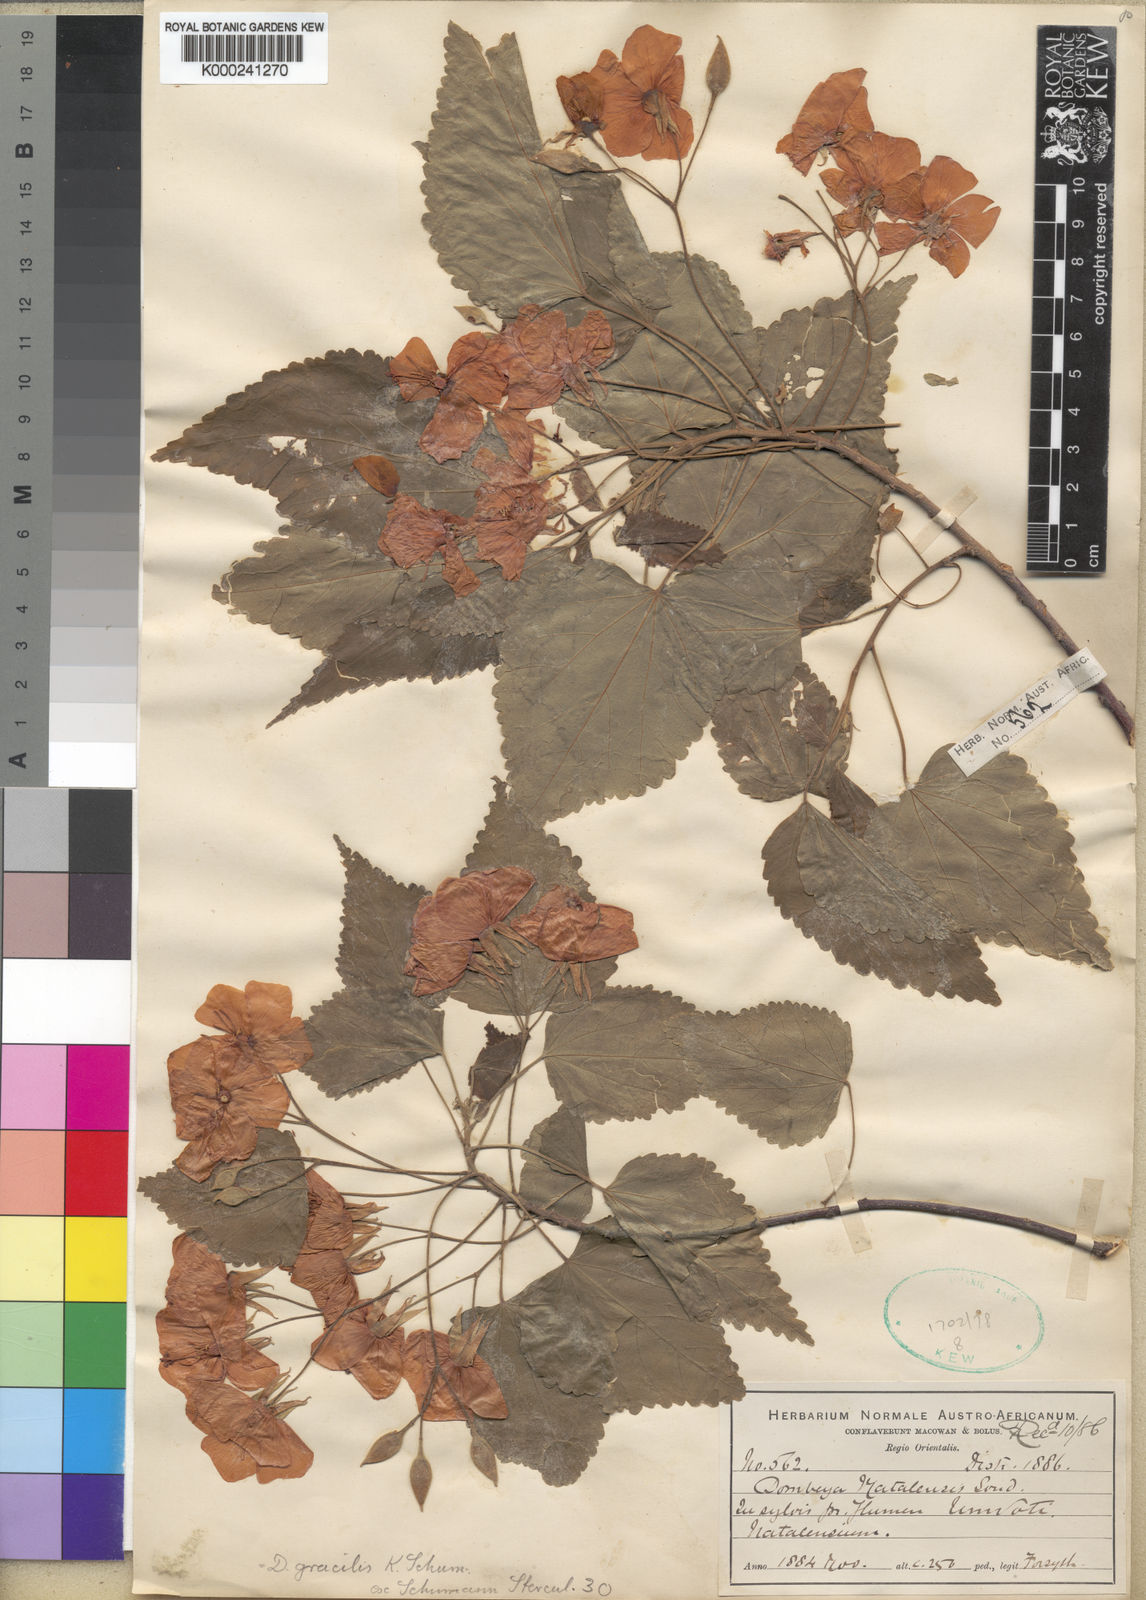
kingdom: Plantae
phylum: Tracheophyta
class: Magnoliopsida
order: Malvales
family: Malvaceae
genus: Dombeya
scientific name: Dombeya tiliacea
